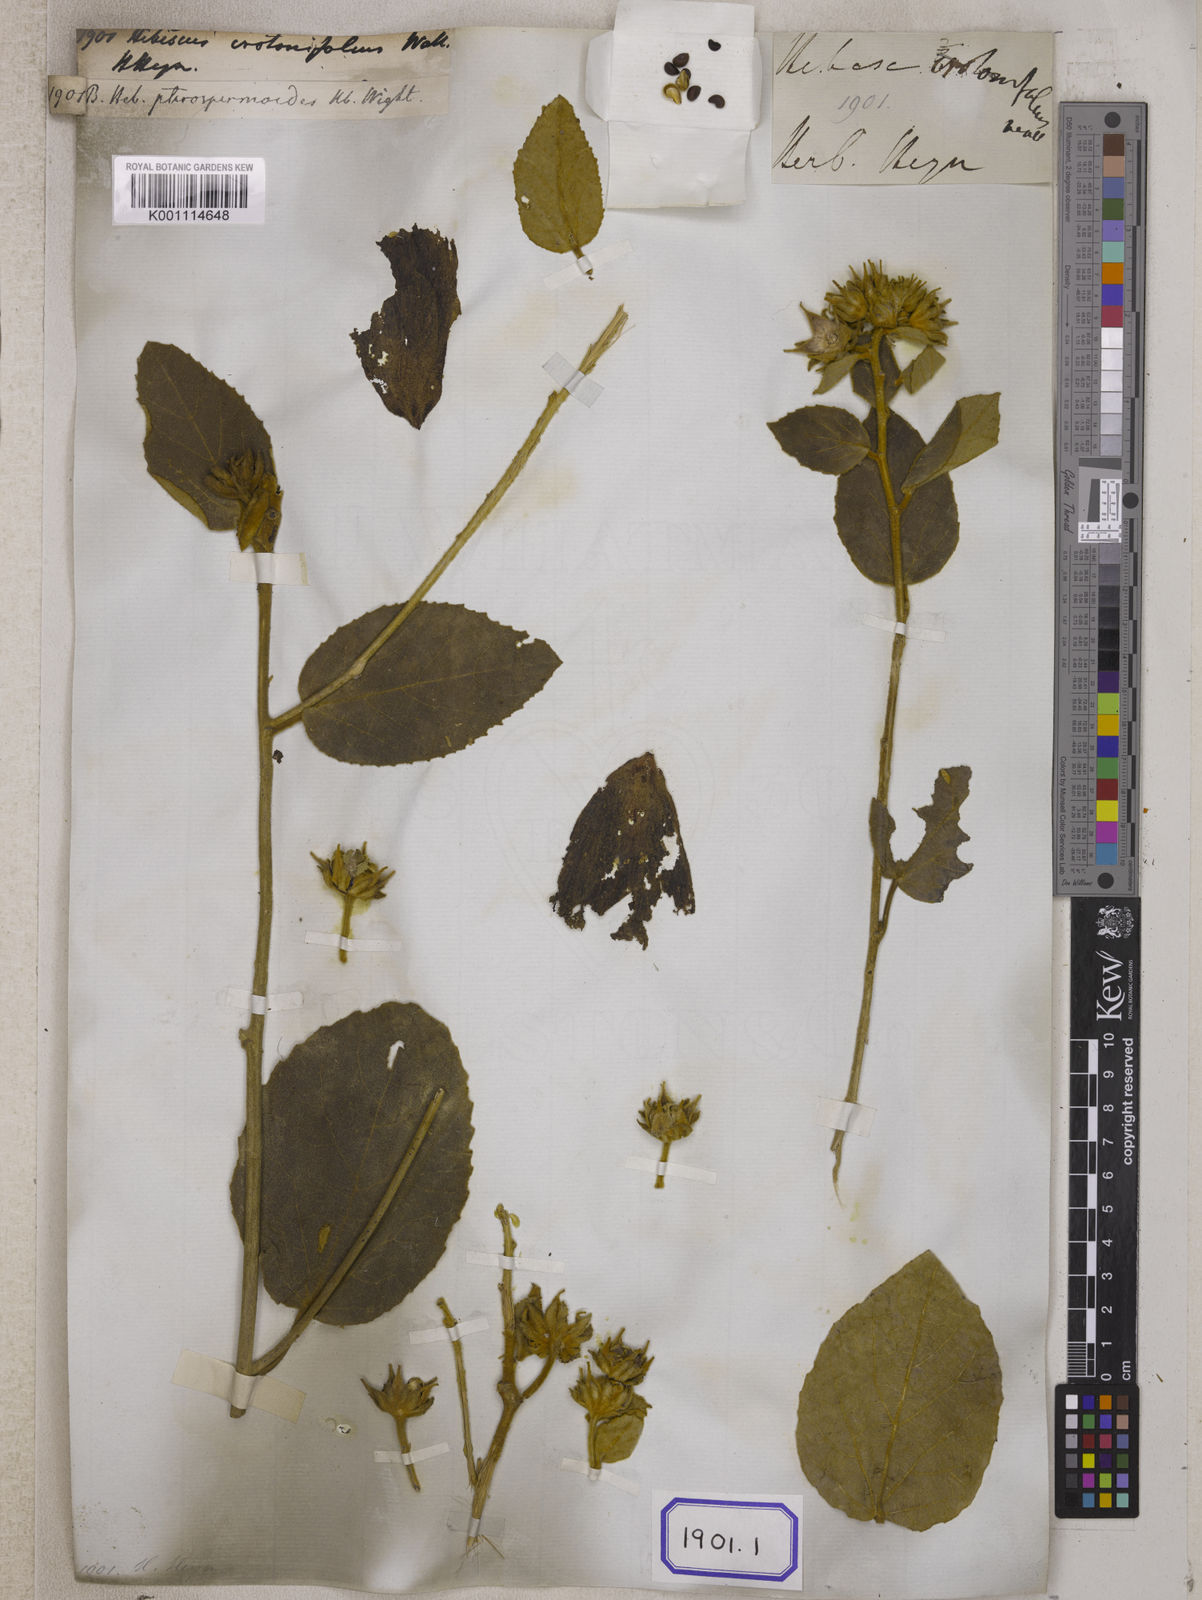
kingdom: Plantae
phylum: Tracheophyta
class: Magnoliopsida
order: Malvales
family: Malvaceae
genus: Decaschistia
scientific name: Decaschistia crotonifolia
